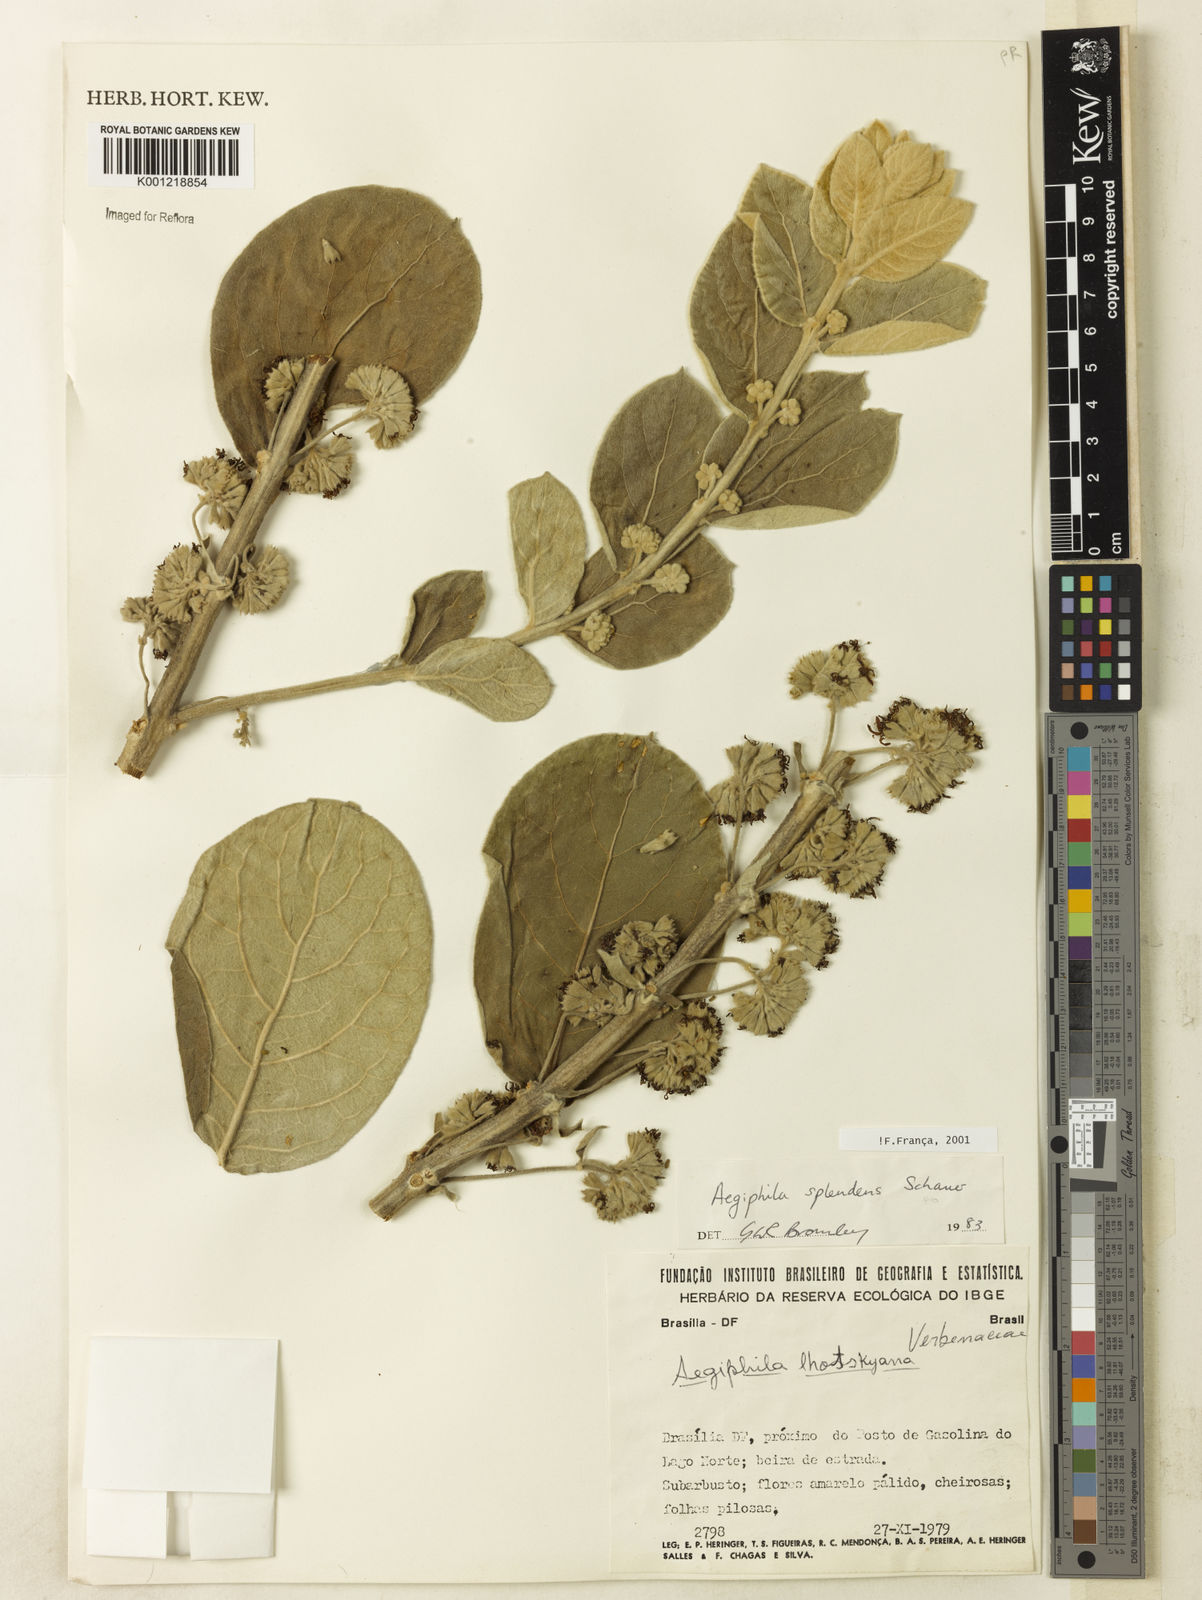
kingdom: Plantae
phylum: Tracheophyta
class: Magnoliopsida
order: Lamiales
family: Lamiaceae
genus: Aegiphila
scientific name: Aegiphila verticillata
